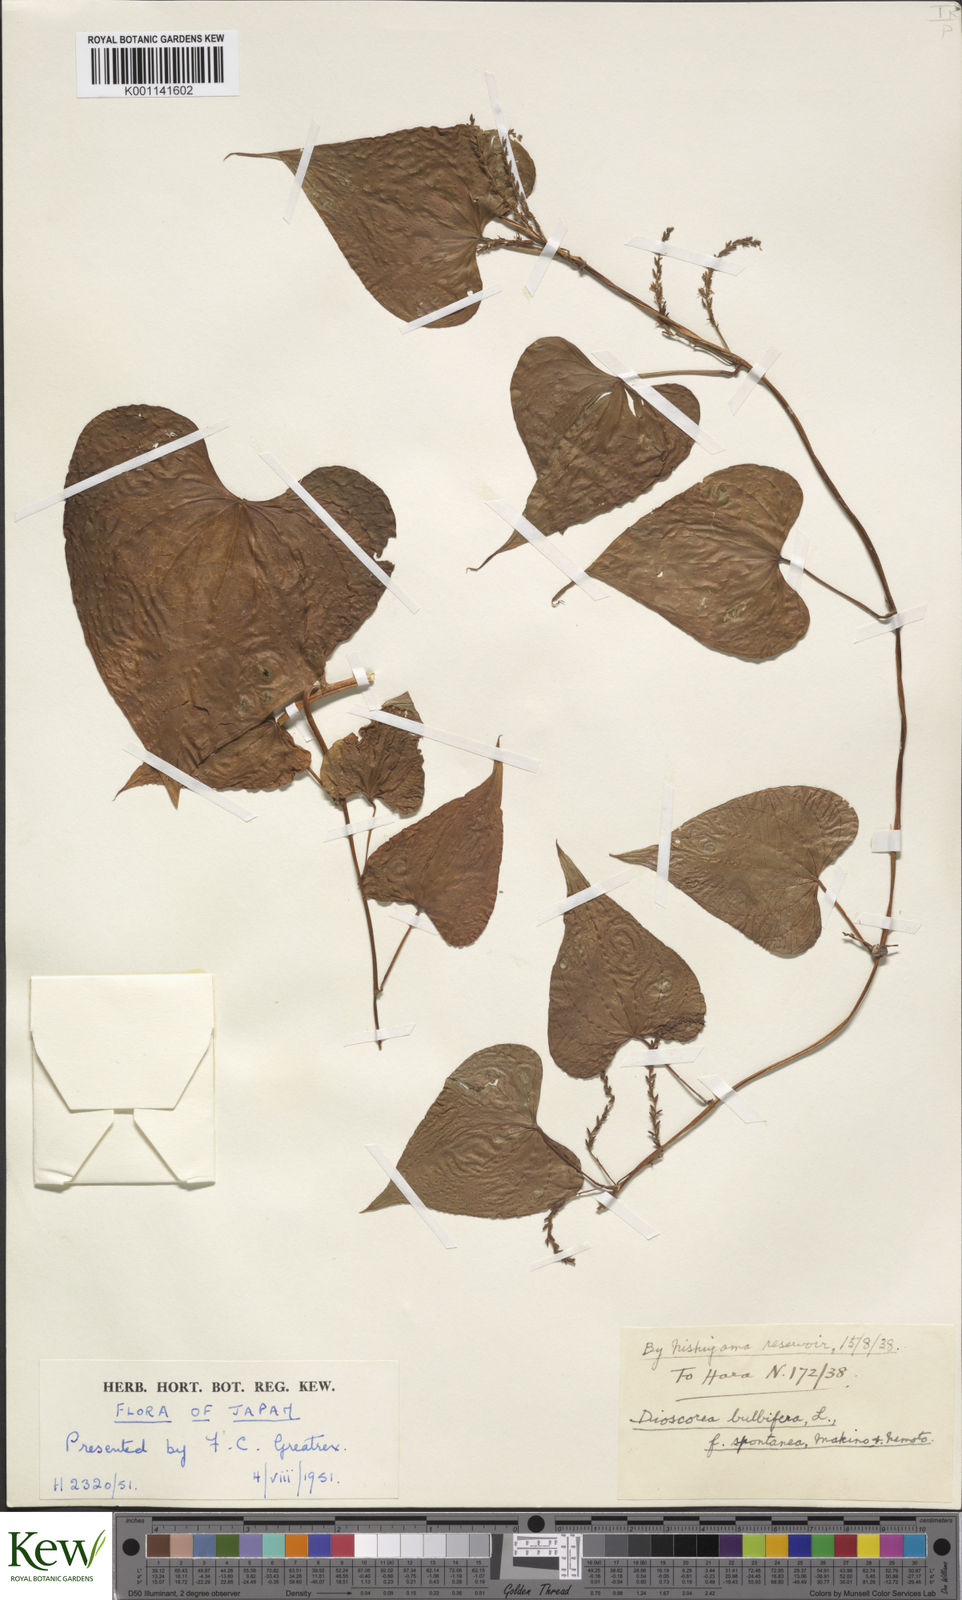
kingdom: Plantae
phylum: Tracheophyta
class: Liliopsida
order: Dioscoreales
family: Dioscoreaceae
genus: Dioscorea
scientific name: Dioscorea bulbifera
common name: Air yam
